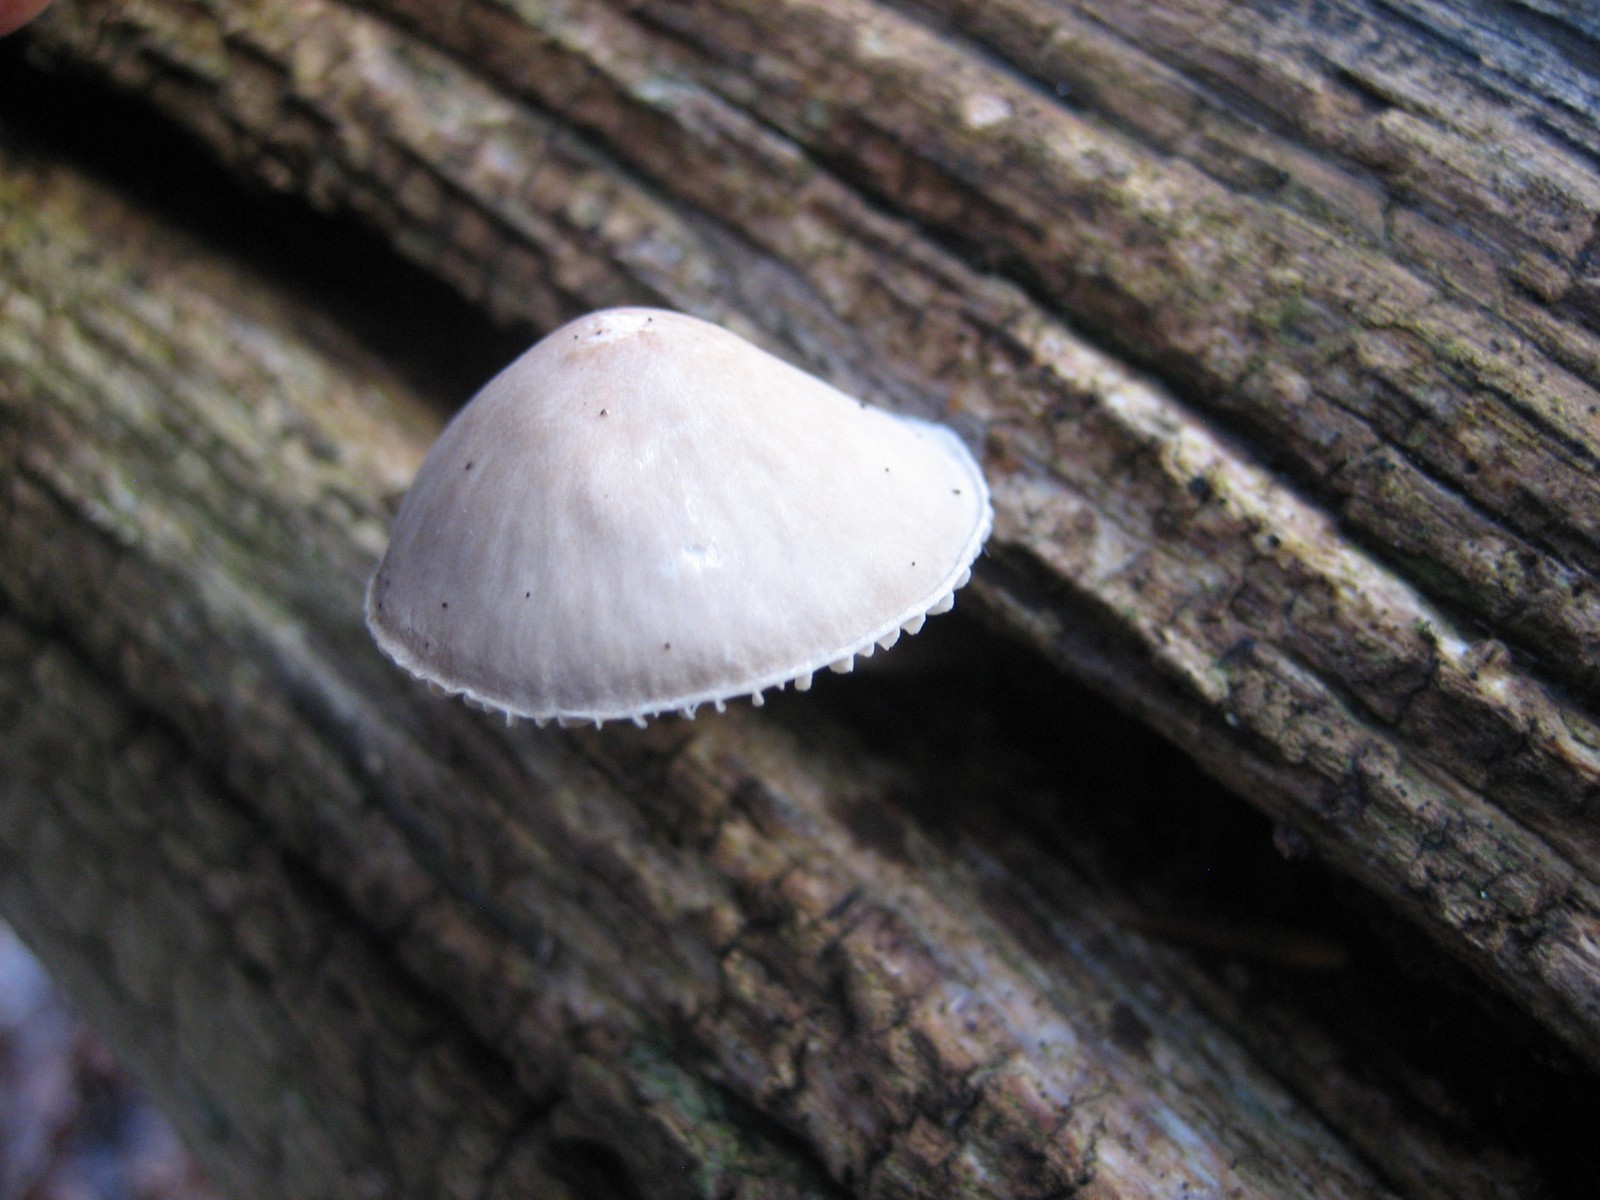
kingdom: Fungi
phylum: Basidiomycota
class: Agaricomycetes
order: Agaricales
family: Mycenaceae
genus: Mycena
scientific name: Mycena
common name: huesvamp
